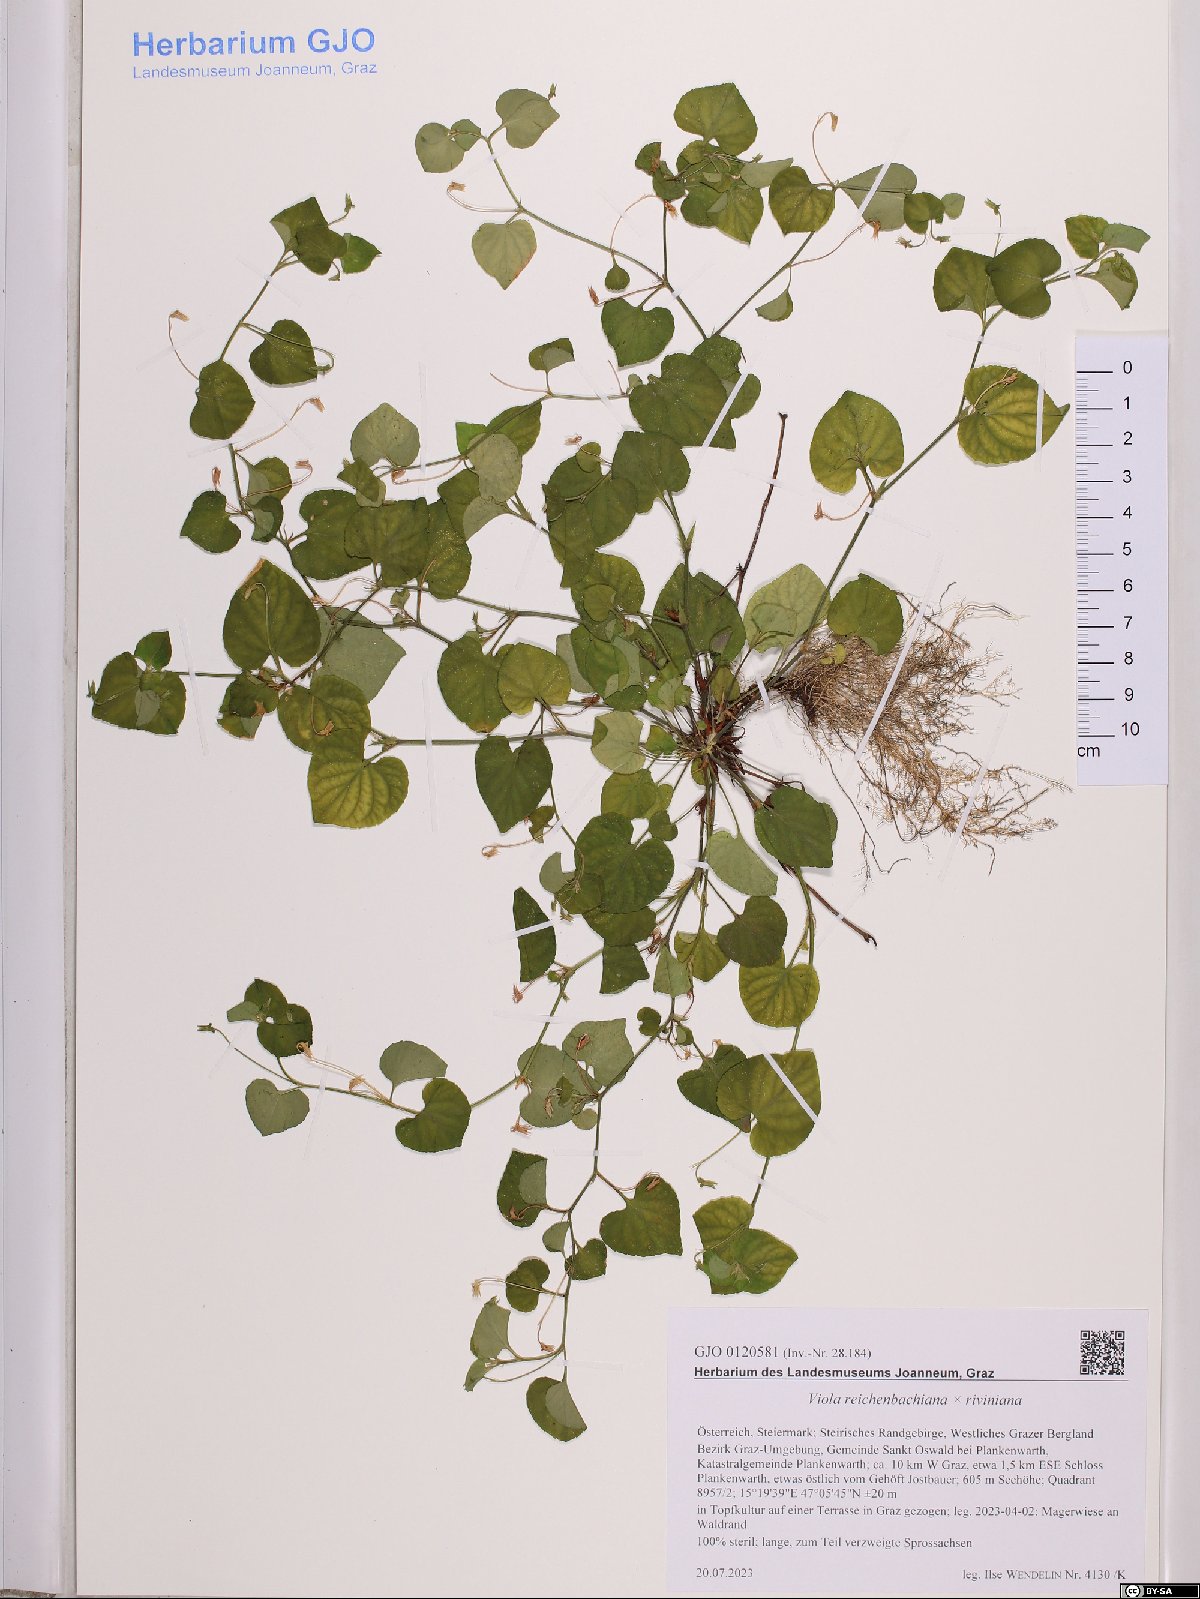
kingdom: Plantae
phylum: Tracheophyta
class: Magnoliopsida
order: Malpighiales
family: Violaceae
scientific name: Violaceae
